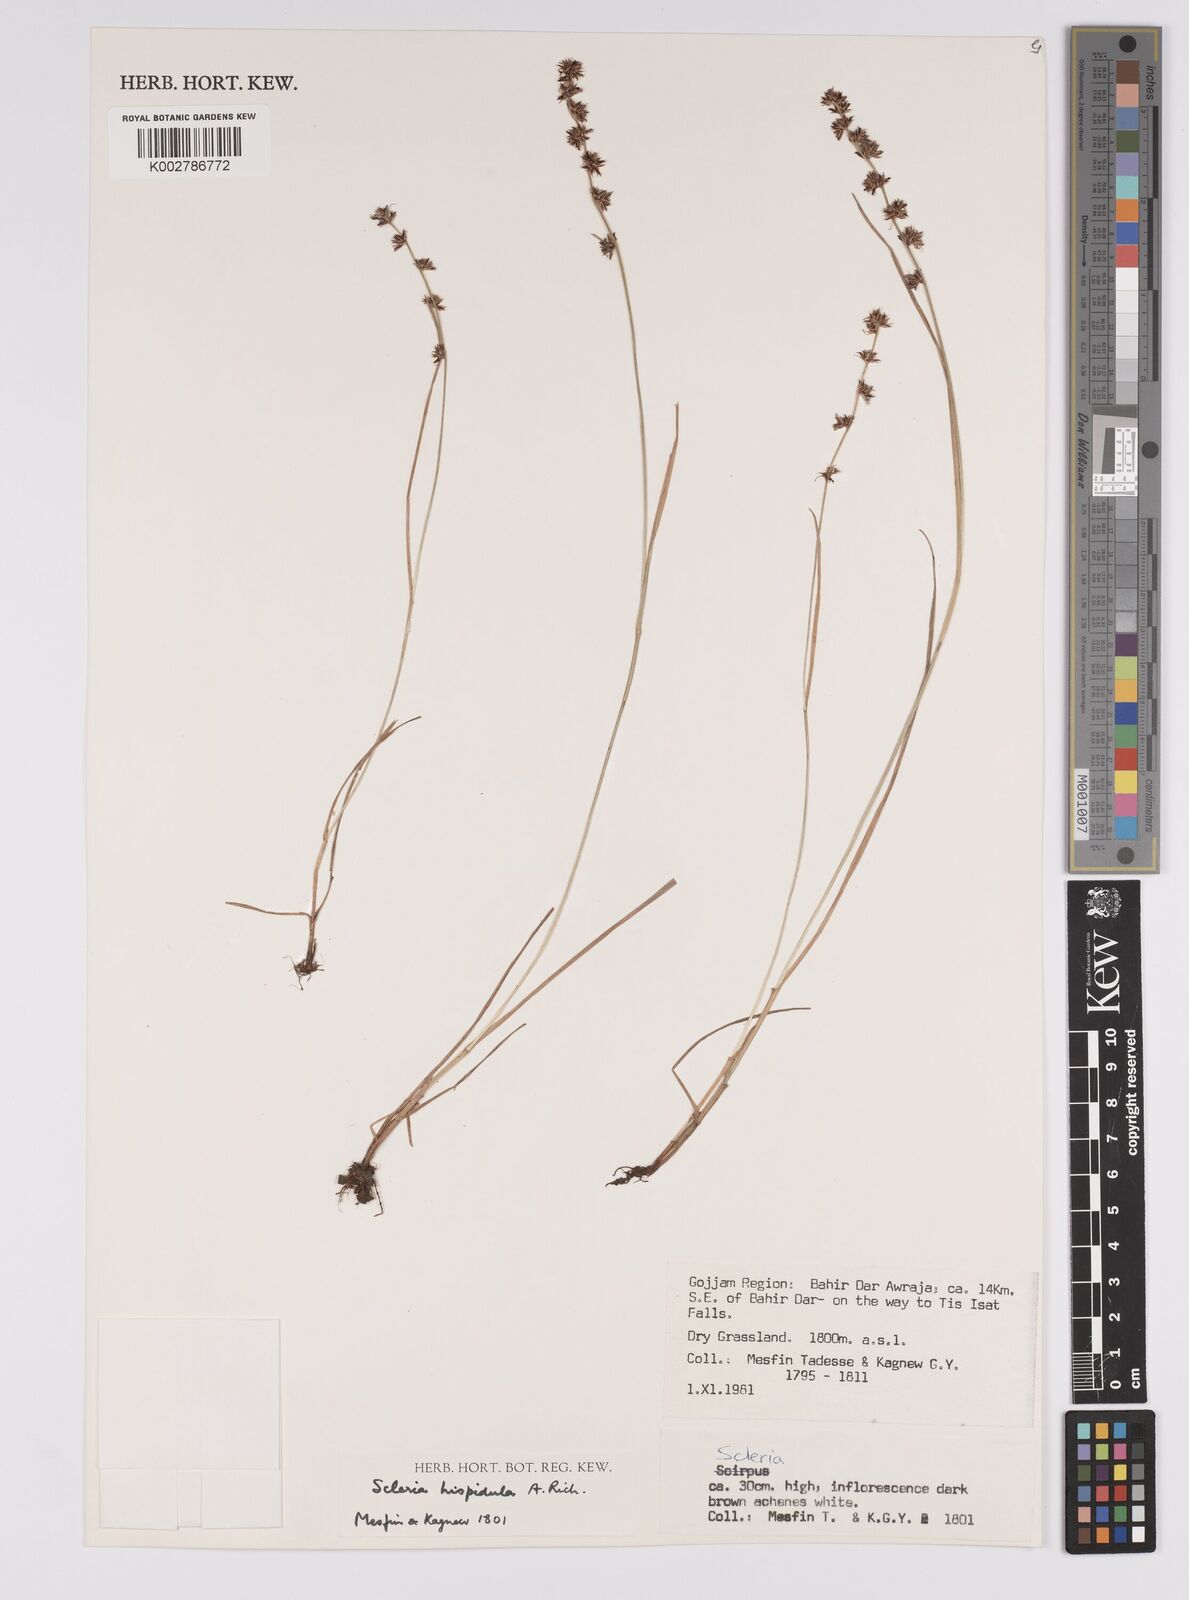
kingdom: Plantae
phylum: Tracheophyta
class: Liliopsida
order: Poales
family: Cyperaceae
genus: Scleria
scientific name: Scleria hispidula
